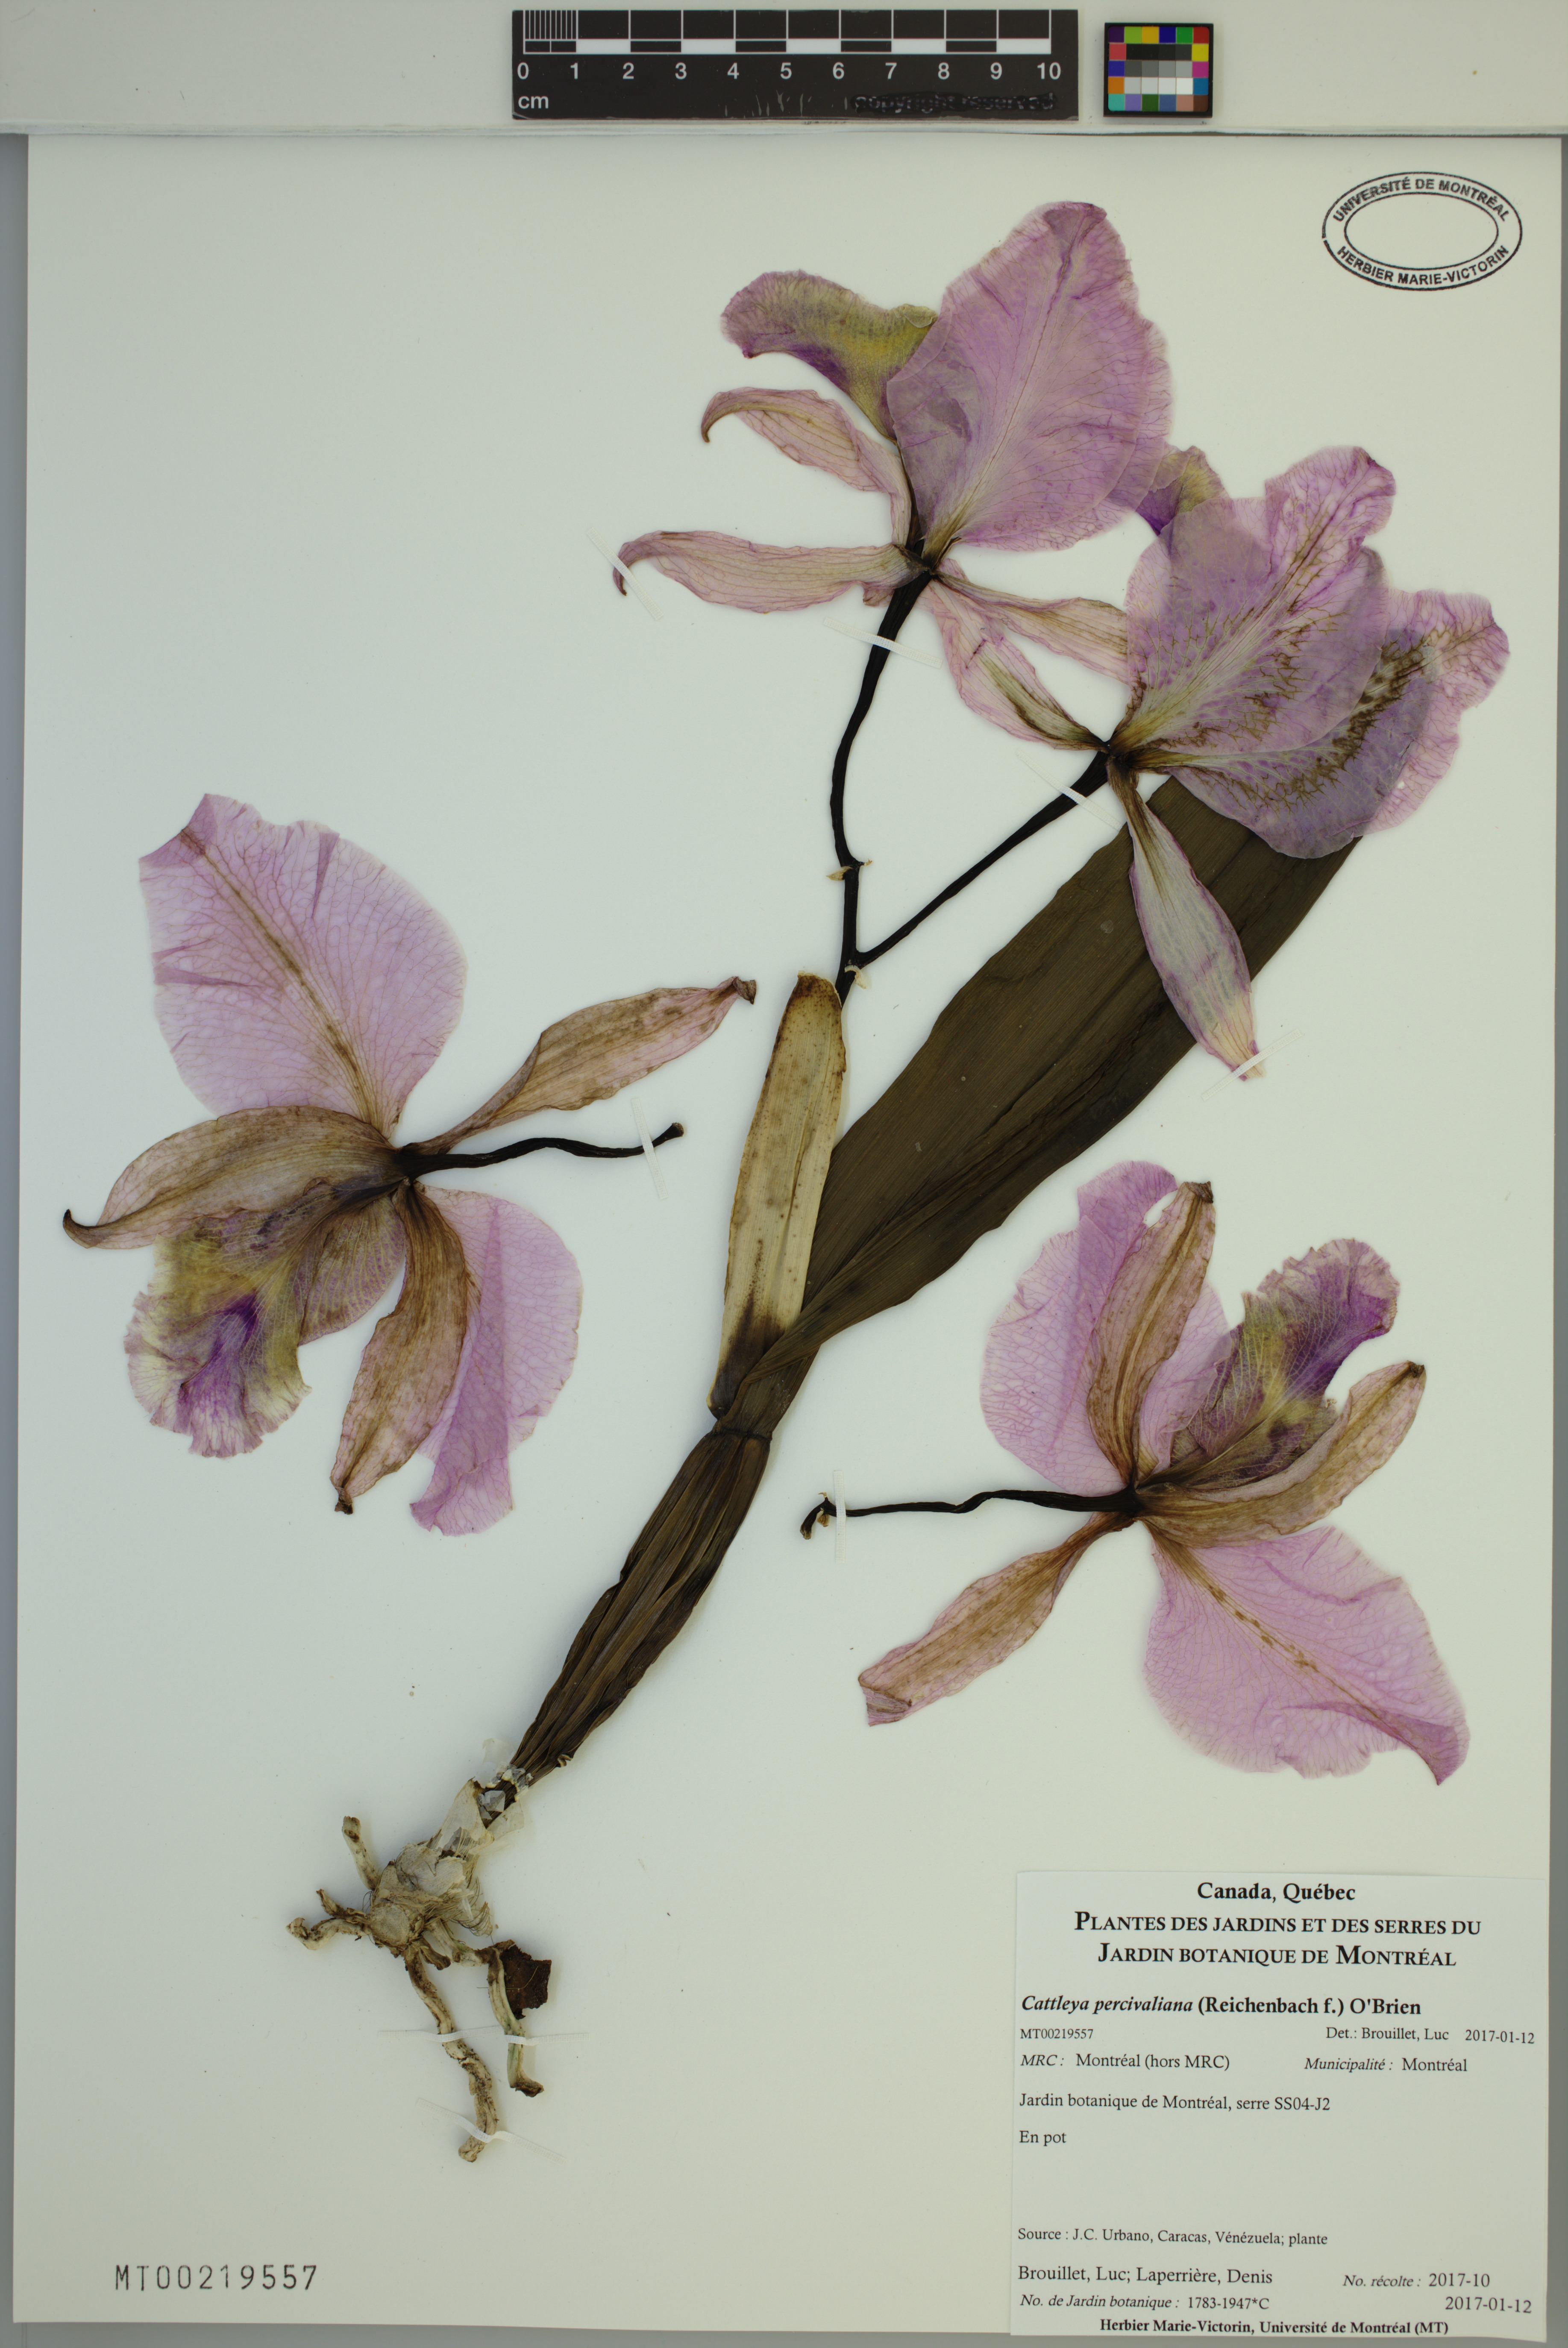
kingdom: Plantae
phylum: Tracheophyta
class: Liliopsida
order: Asparagales
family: Orchidaceae
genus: Cattleya
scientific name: Cattleya percivaliana
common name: Christmas cattleya
